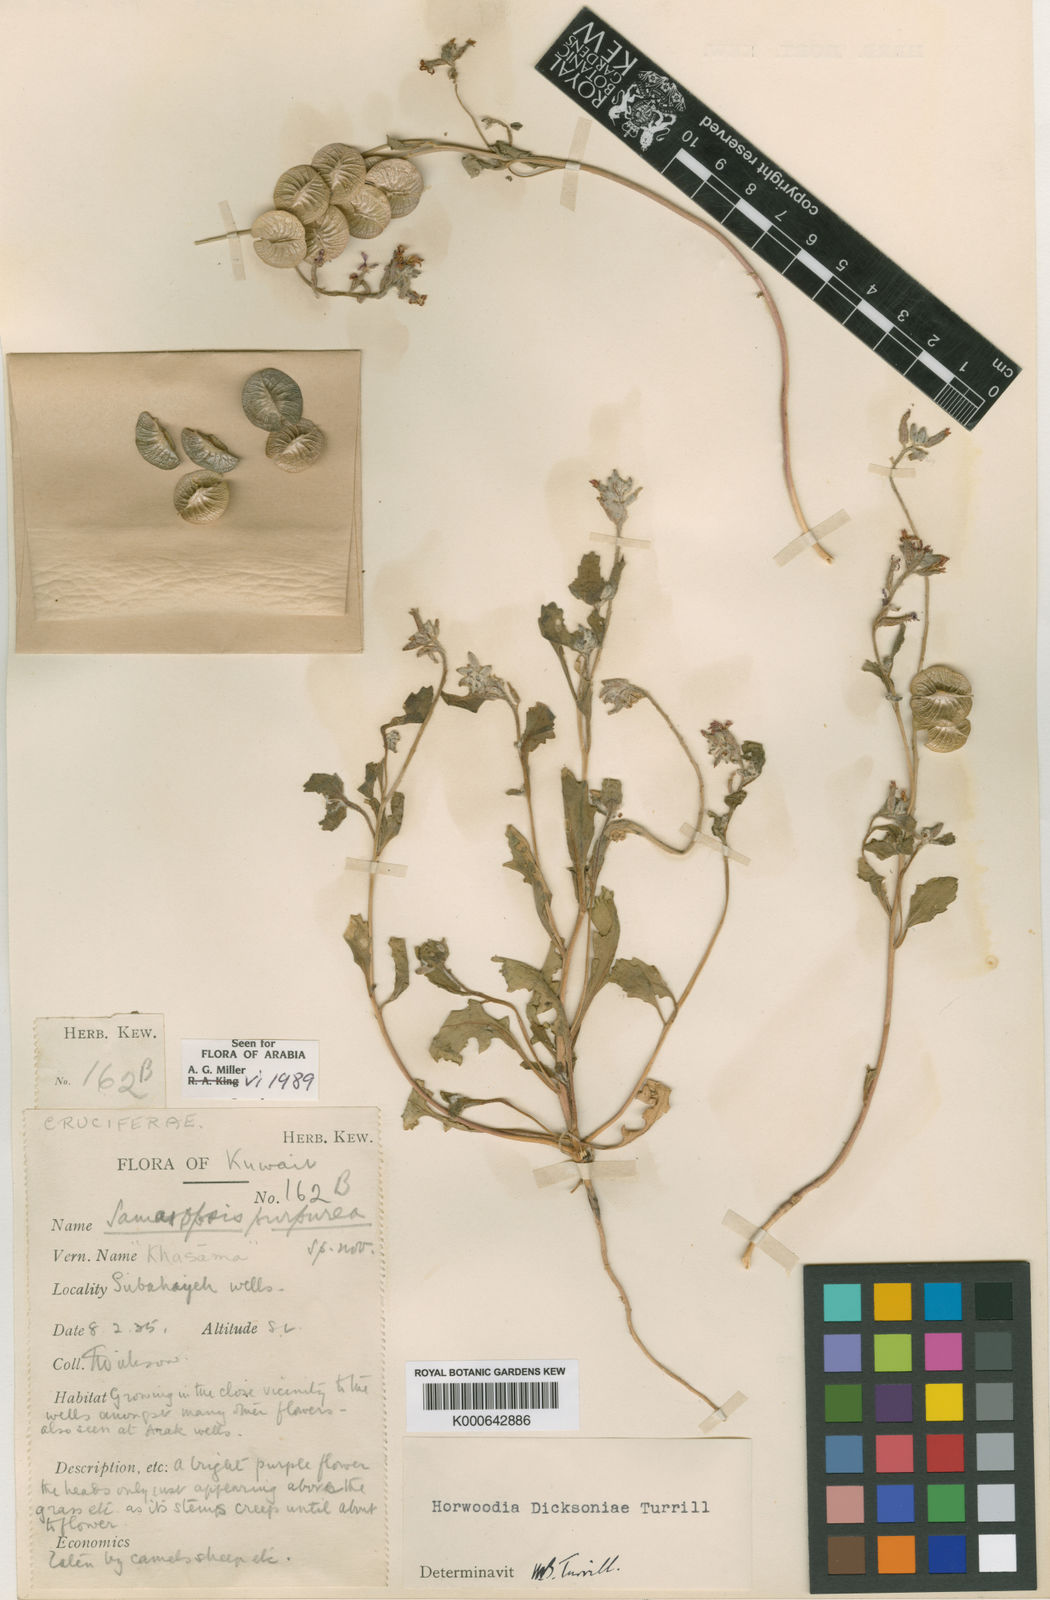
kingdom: Plantae
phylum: Tracheophyta
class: Magnoliopsida
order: Brassicales
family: Brassicaceae
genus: Horwoodia
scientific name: Horwoodia dicksoniae
